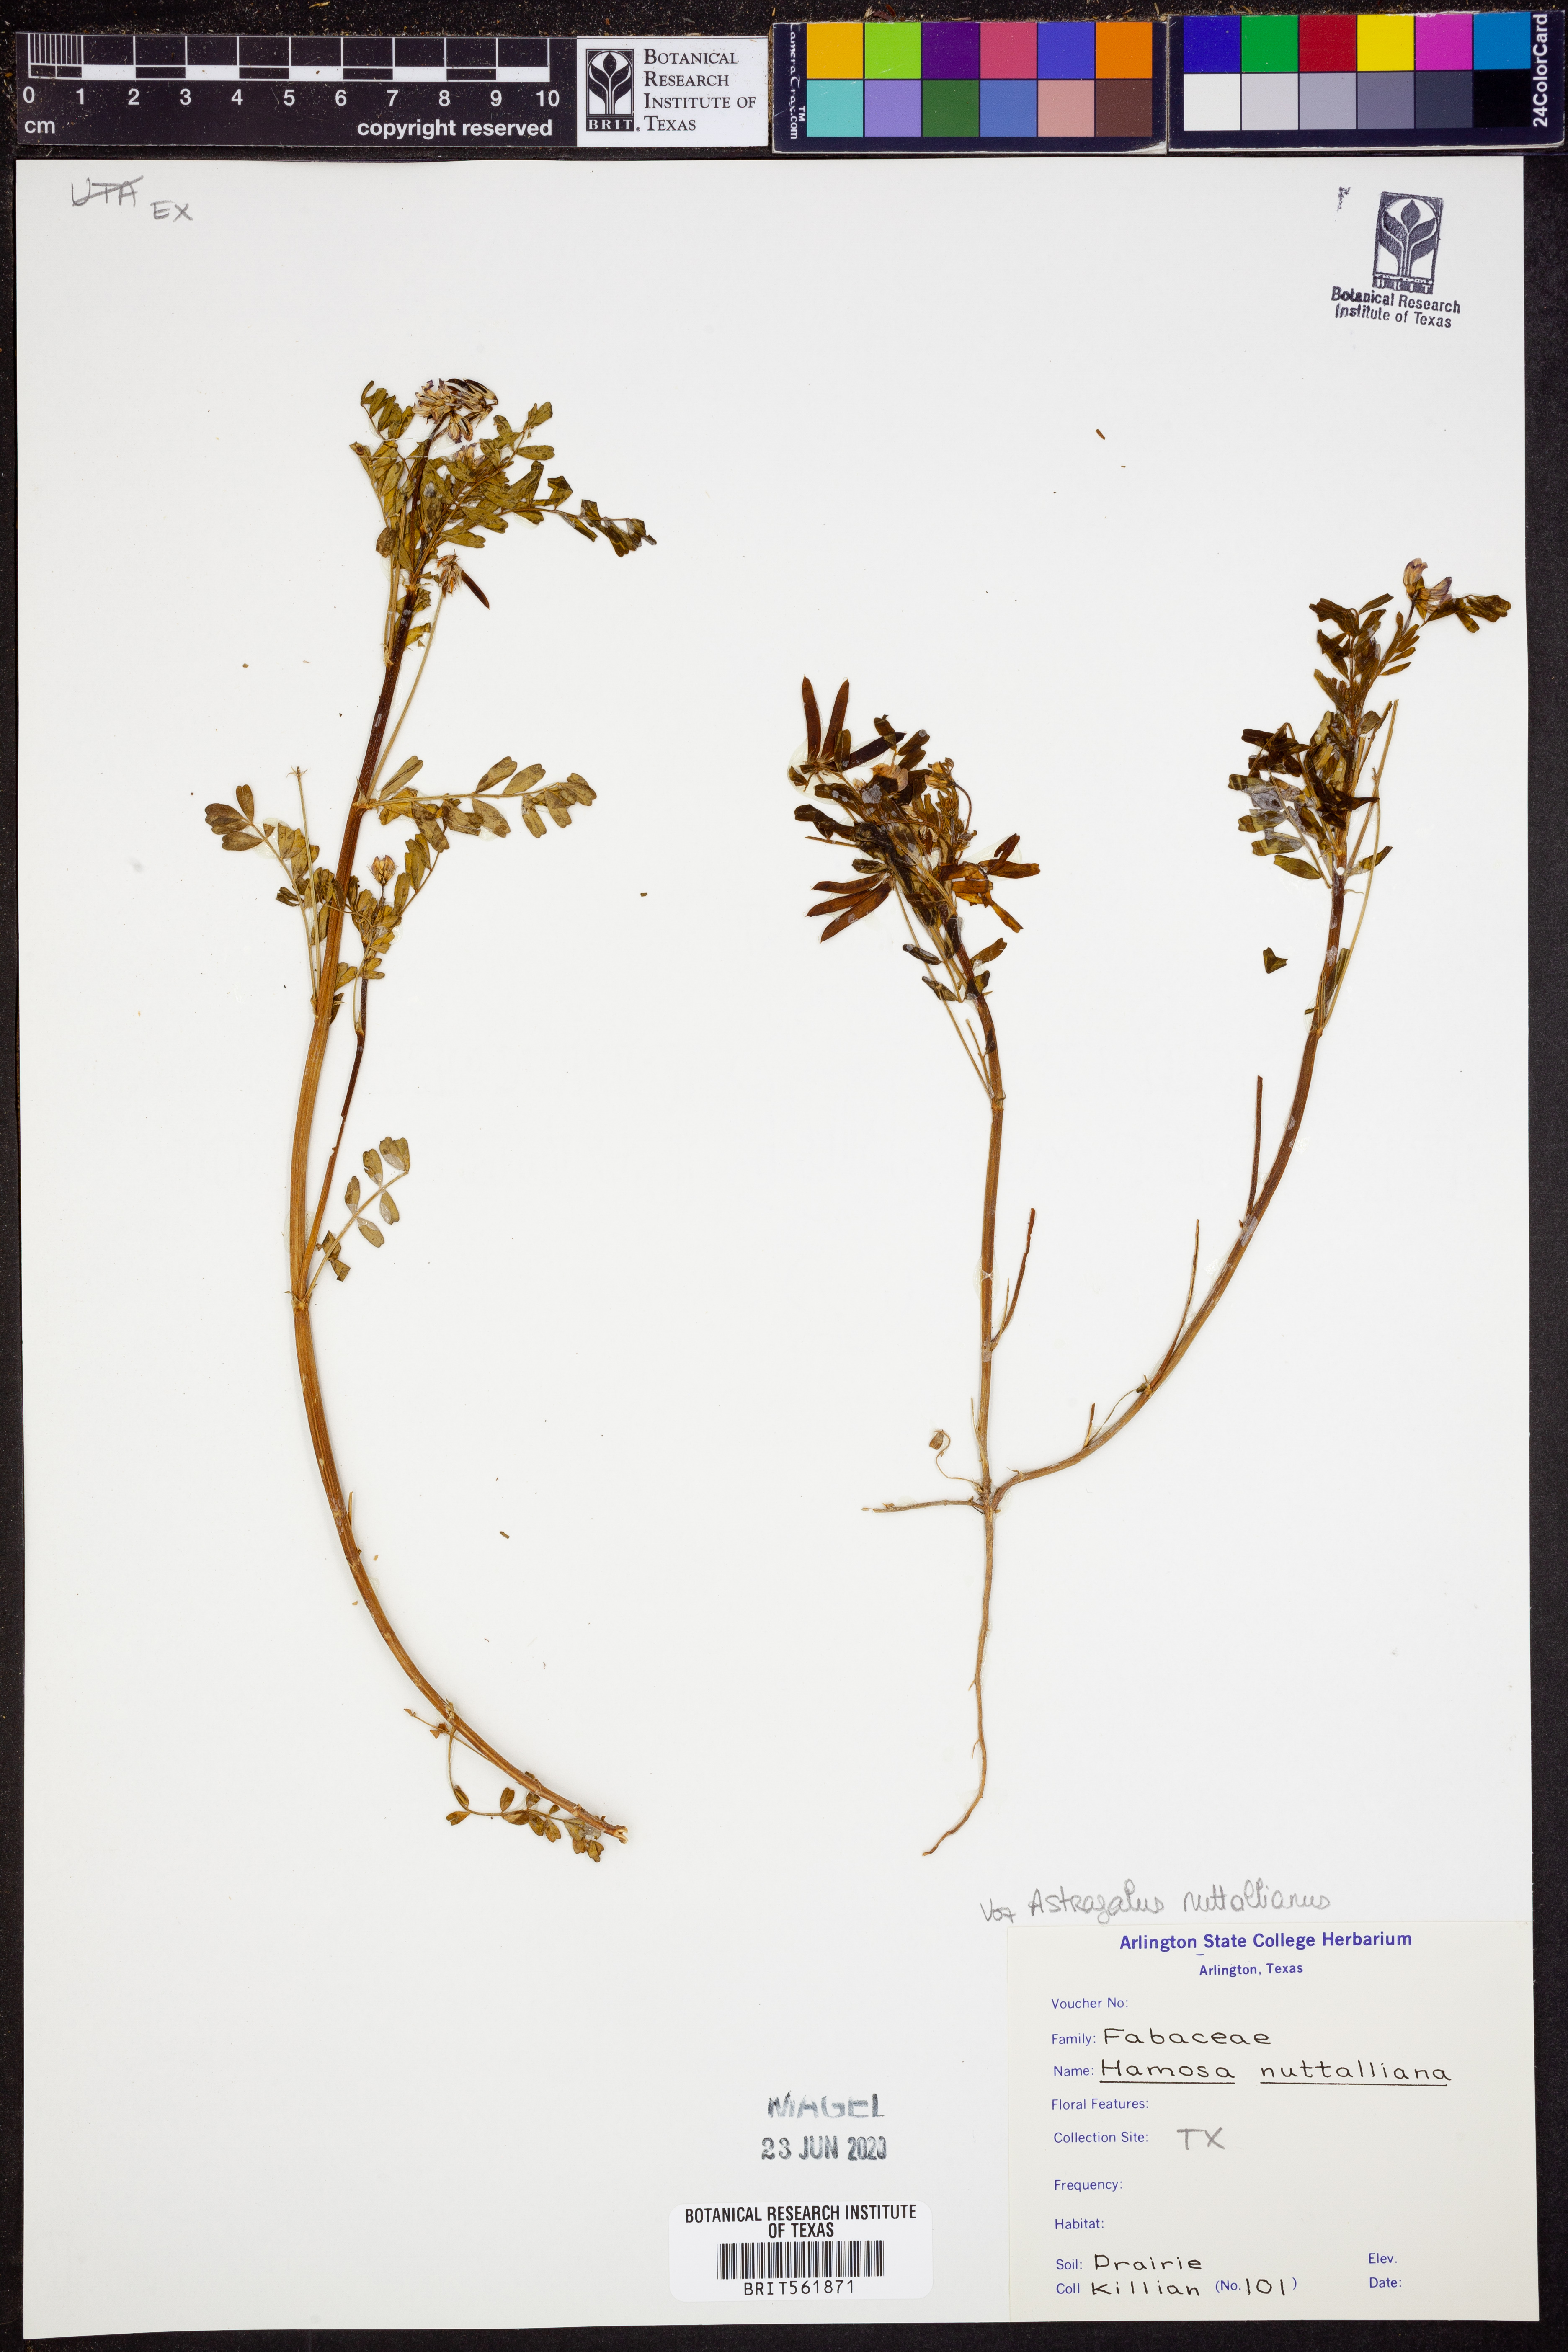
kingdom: Plantae
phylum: Tracheophyta
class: Magnoliopsida
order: Fabales
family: Fabaceae
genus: Astragalus
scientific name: Astragalus nuttallianus
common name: Smallflowered milkvetch
